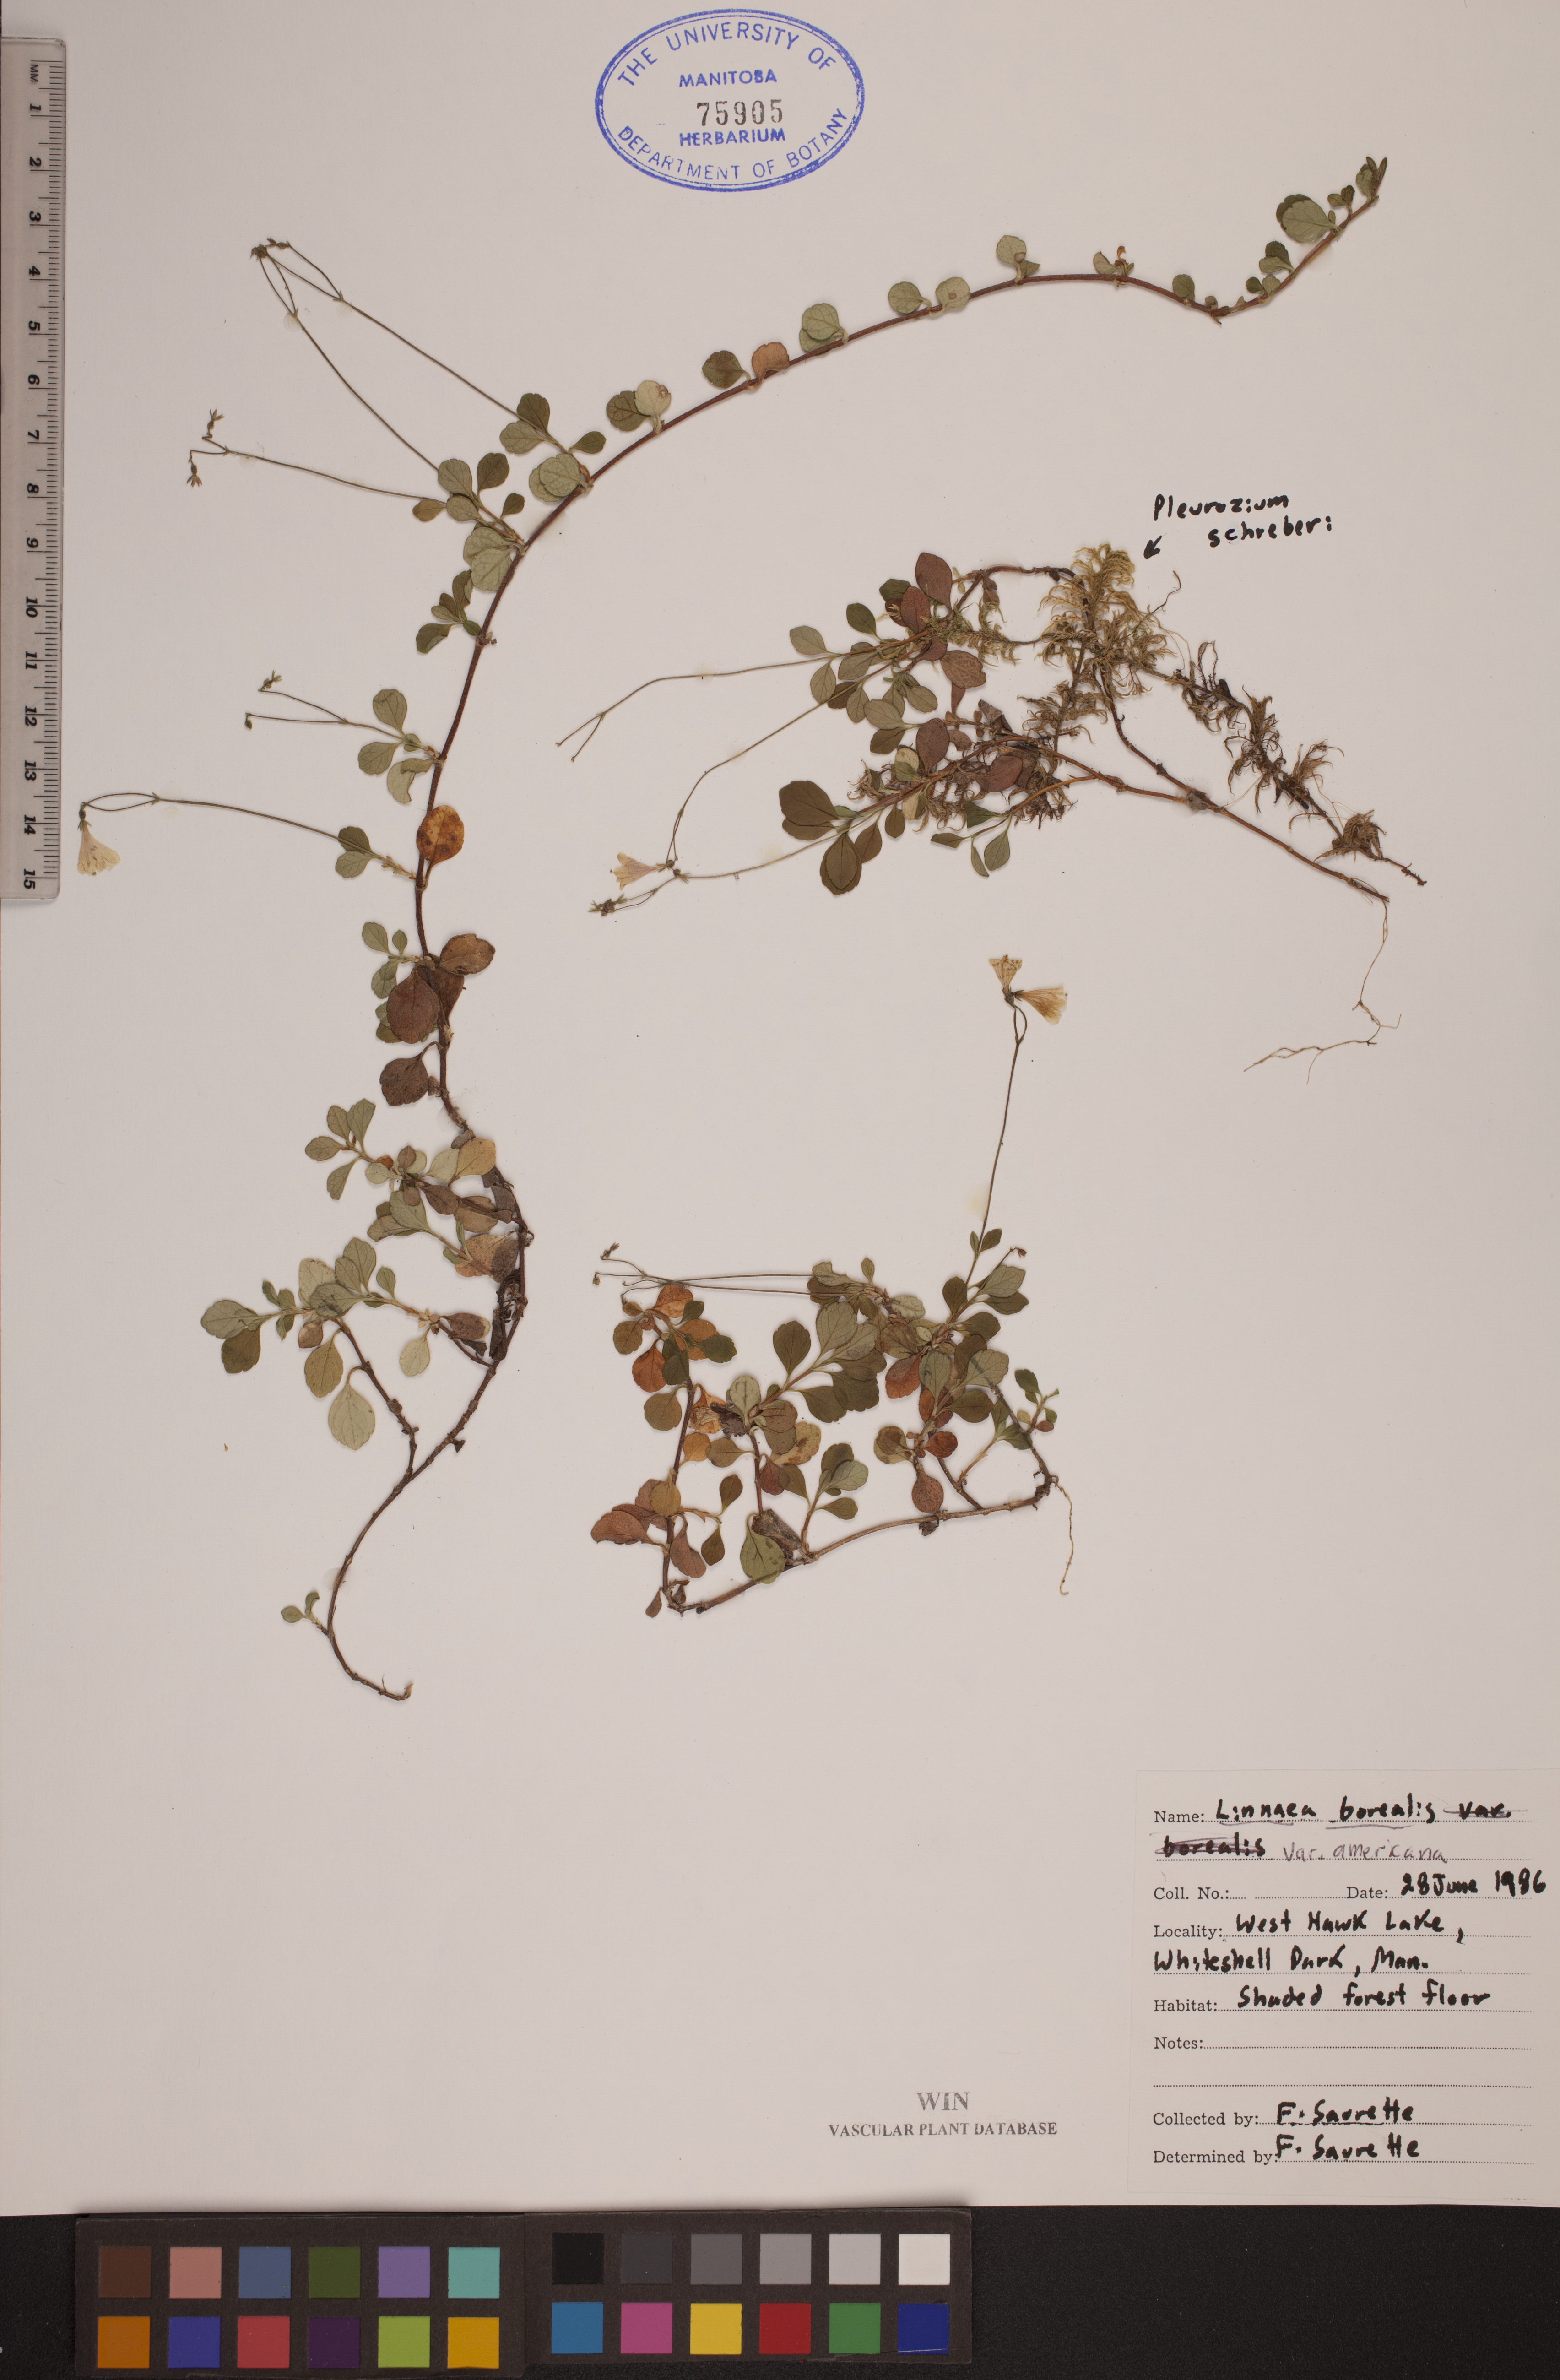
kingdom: Plantae
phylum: Tracheophyta
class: Magnoliopsida
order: Dipsacales
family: Caprifoliaceae
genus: Linnaea
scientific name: Linnaea borealis
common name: Twinflower
